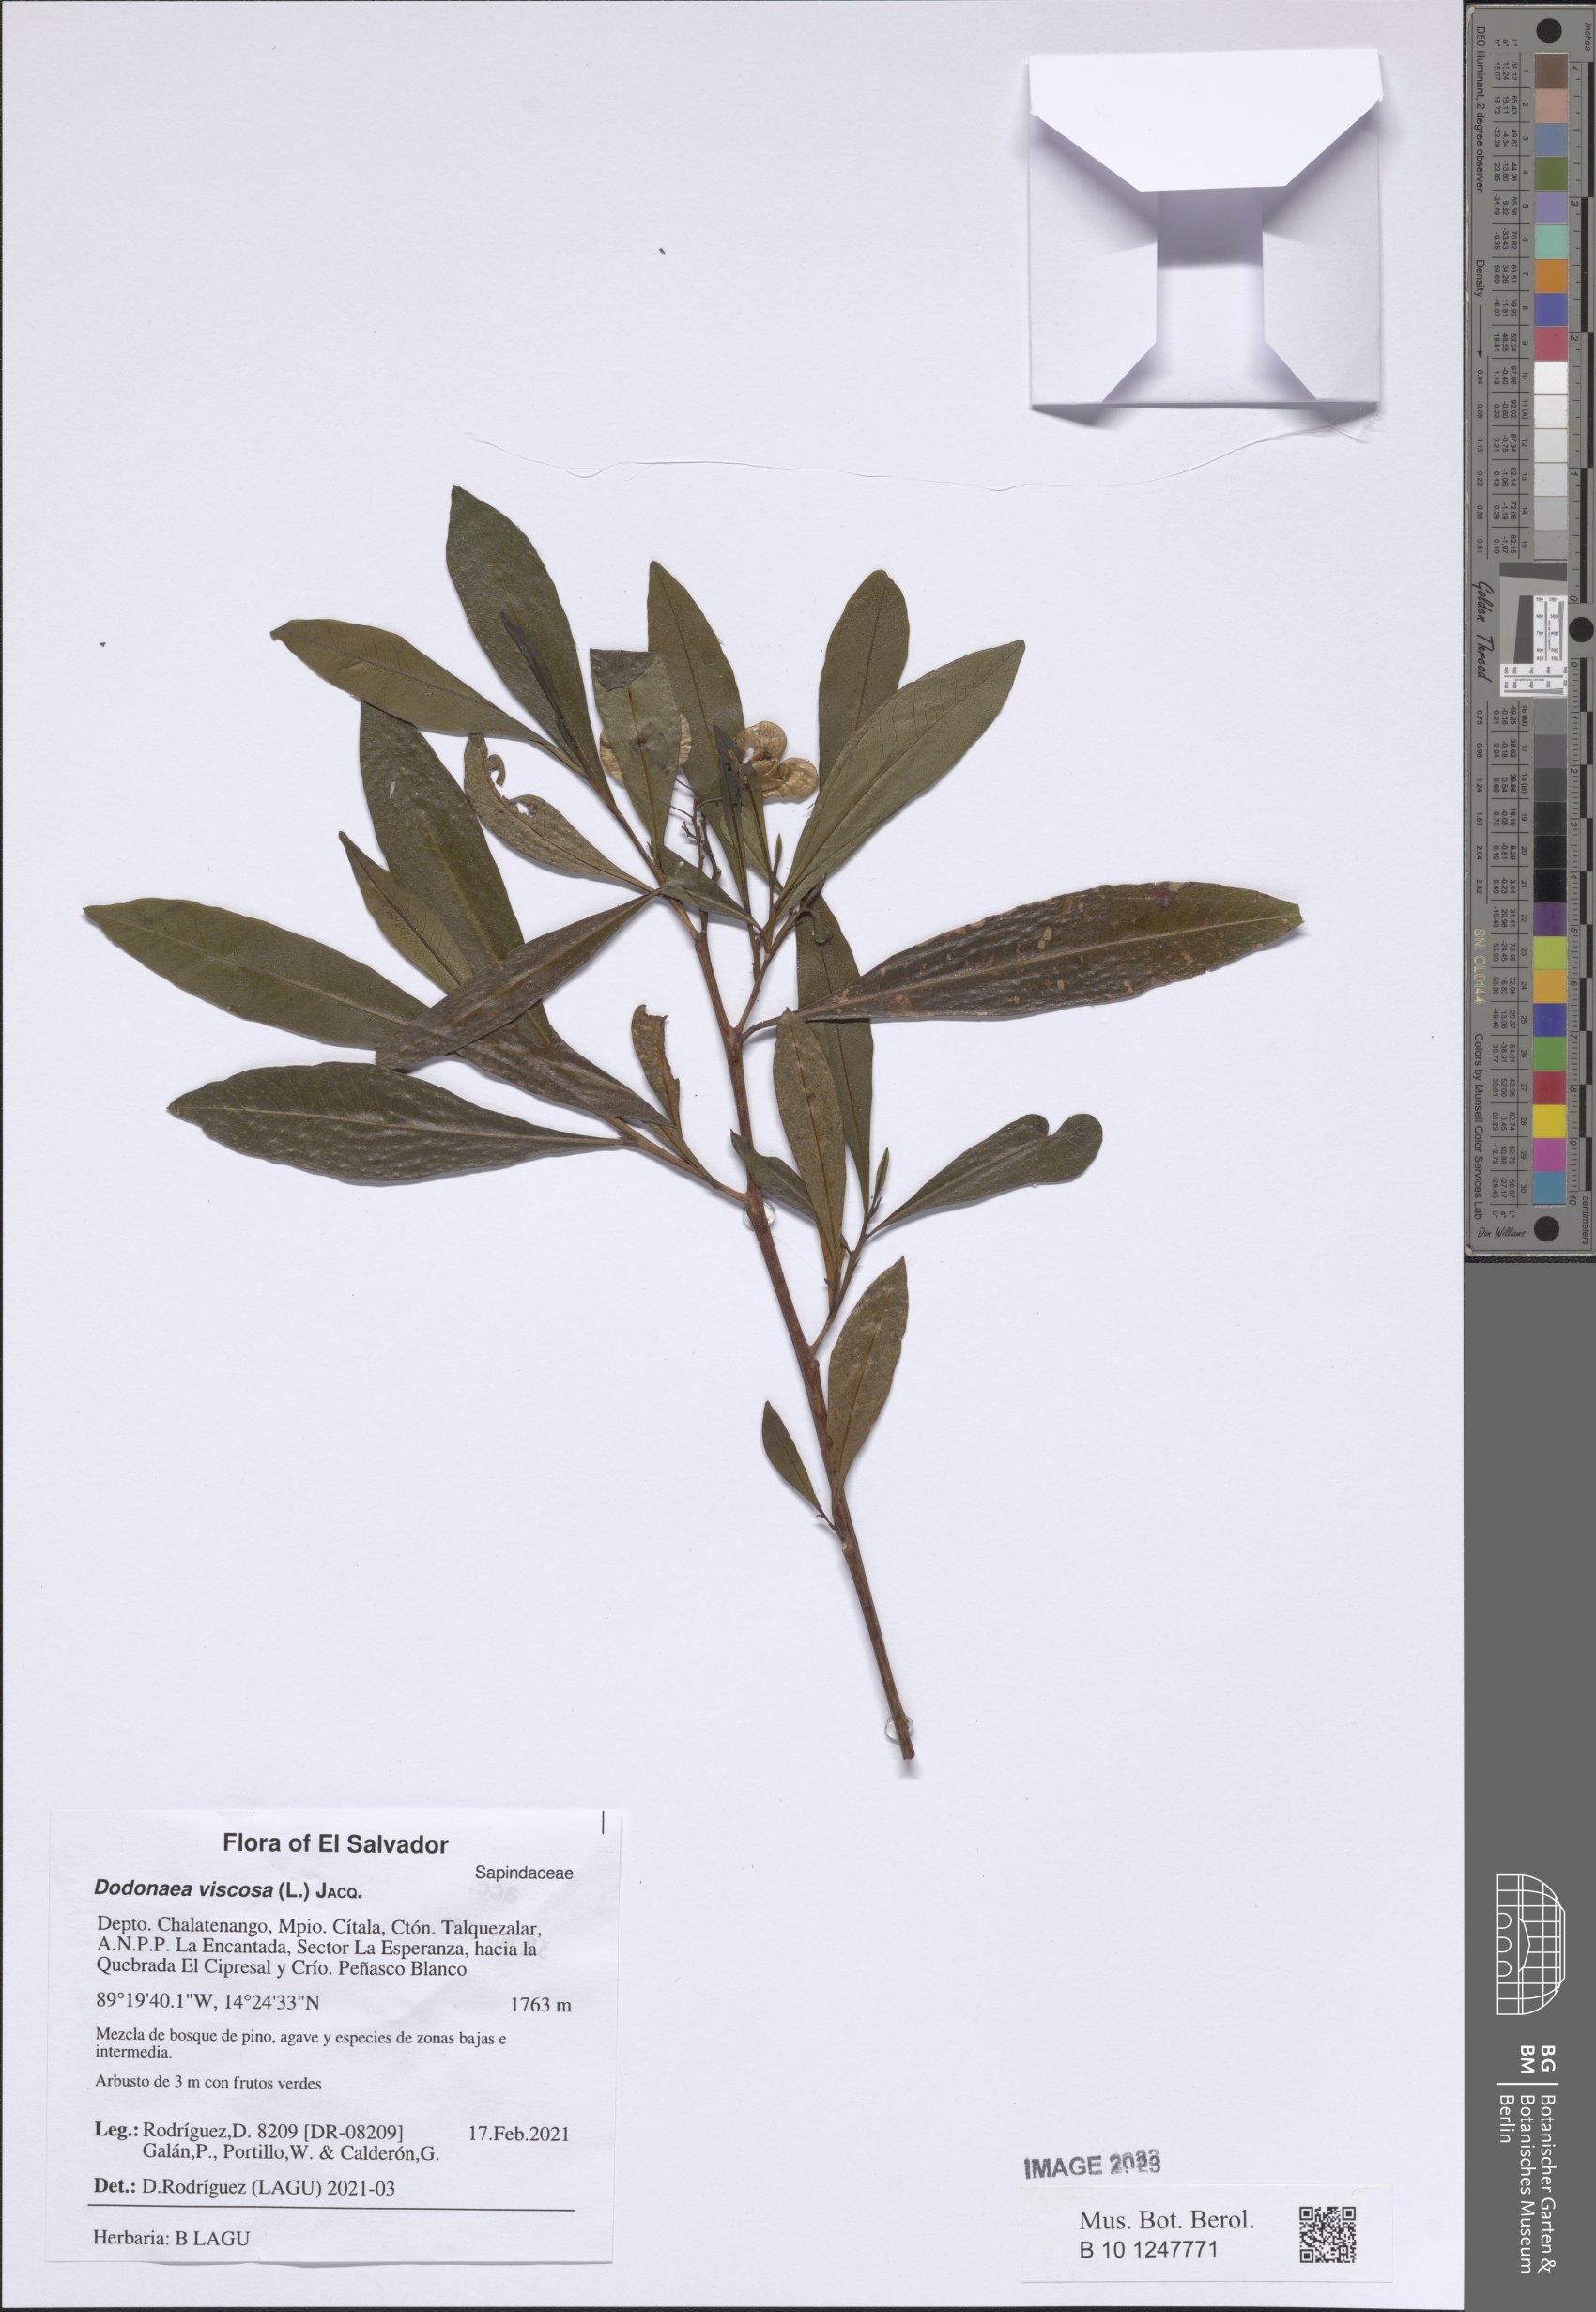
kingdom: Plantae
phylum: Tracheophyta
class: Magnoliopsida
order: Sapindales
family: Sapindaceae
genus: Dodonaea
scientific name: Dodonaea viscosa
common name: Hopbush
